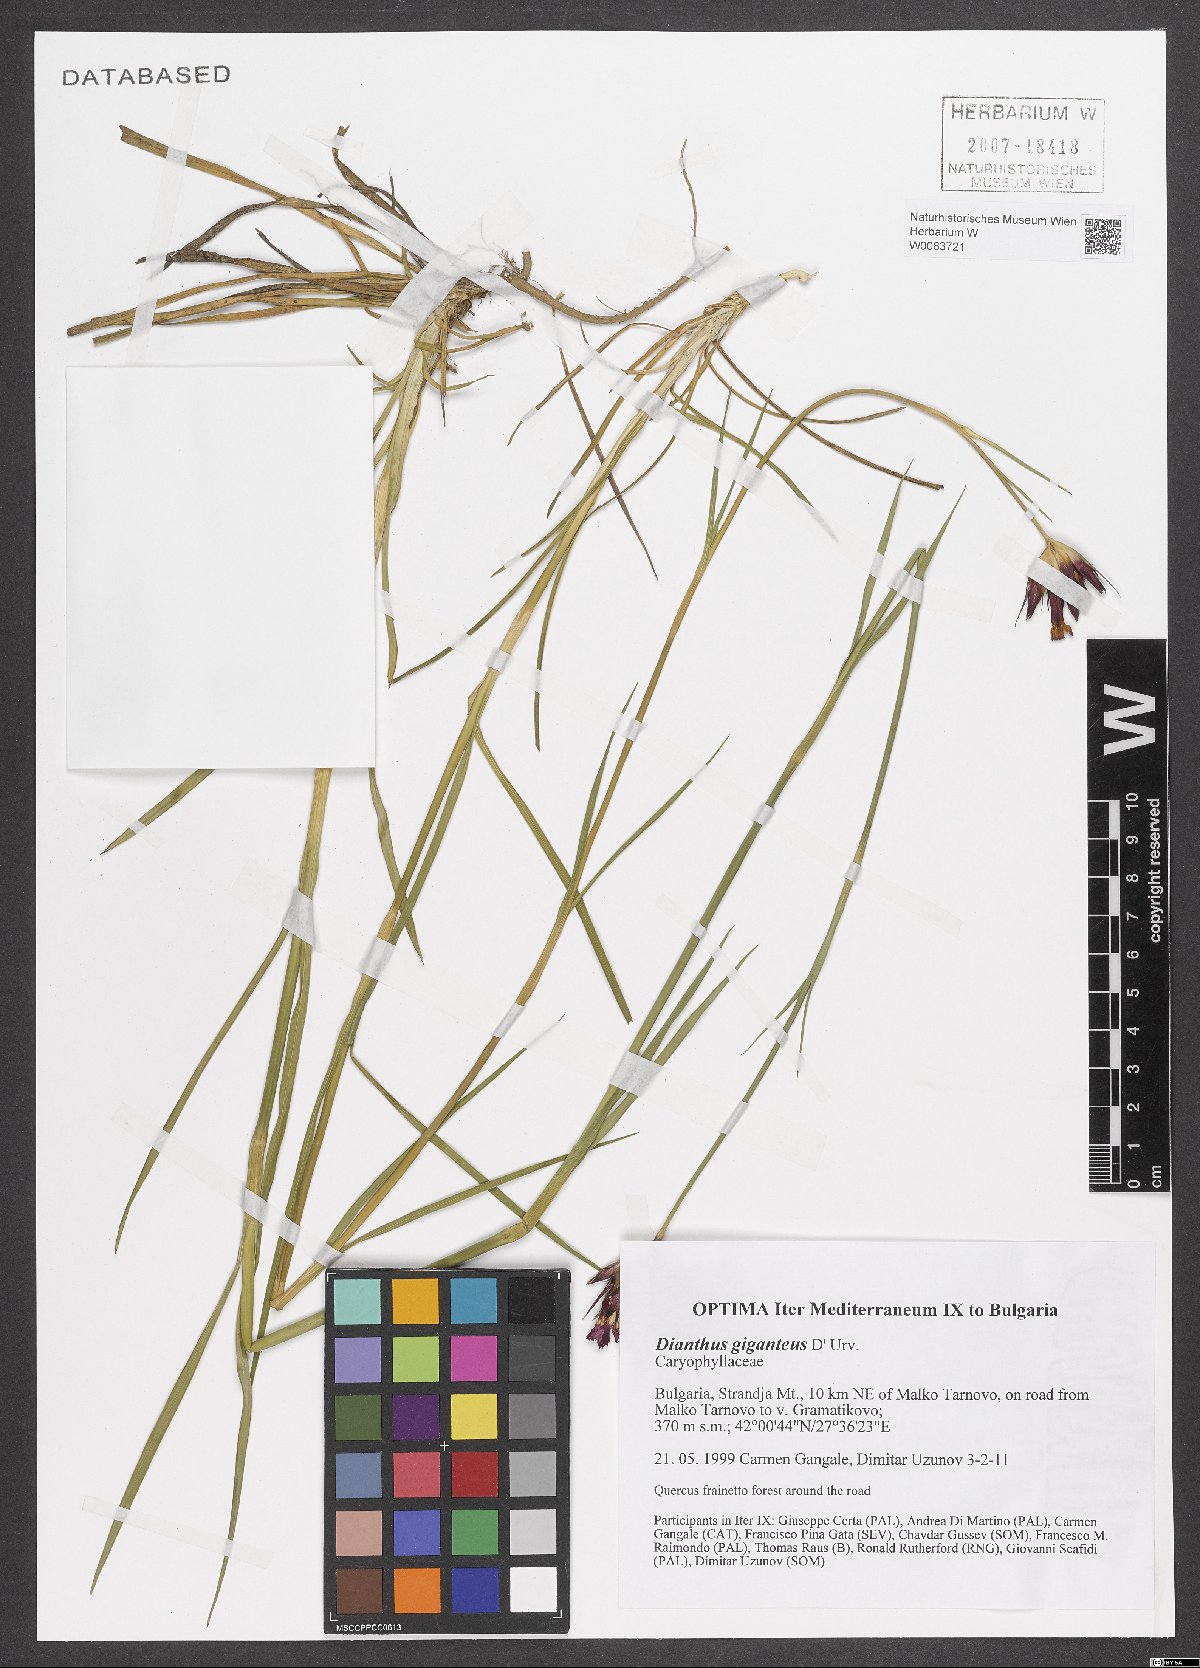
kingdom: Plantae
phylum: Tracheophyta
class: Magnoliopsida
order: Caryophyllales
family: Caryophyllaceae
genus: Dianthus
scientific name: Dianthus giganteus
